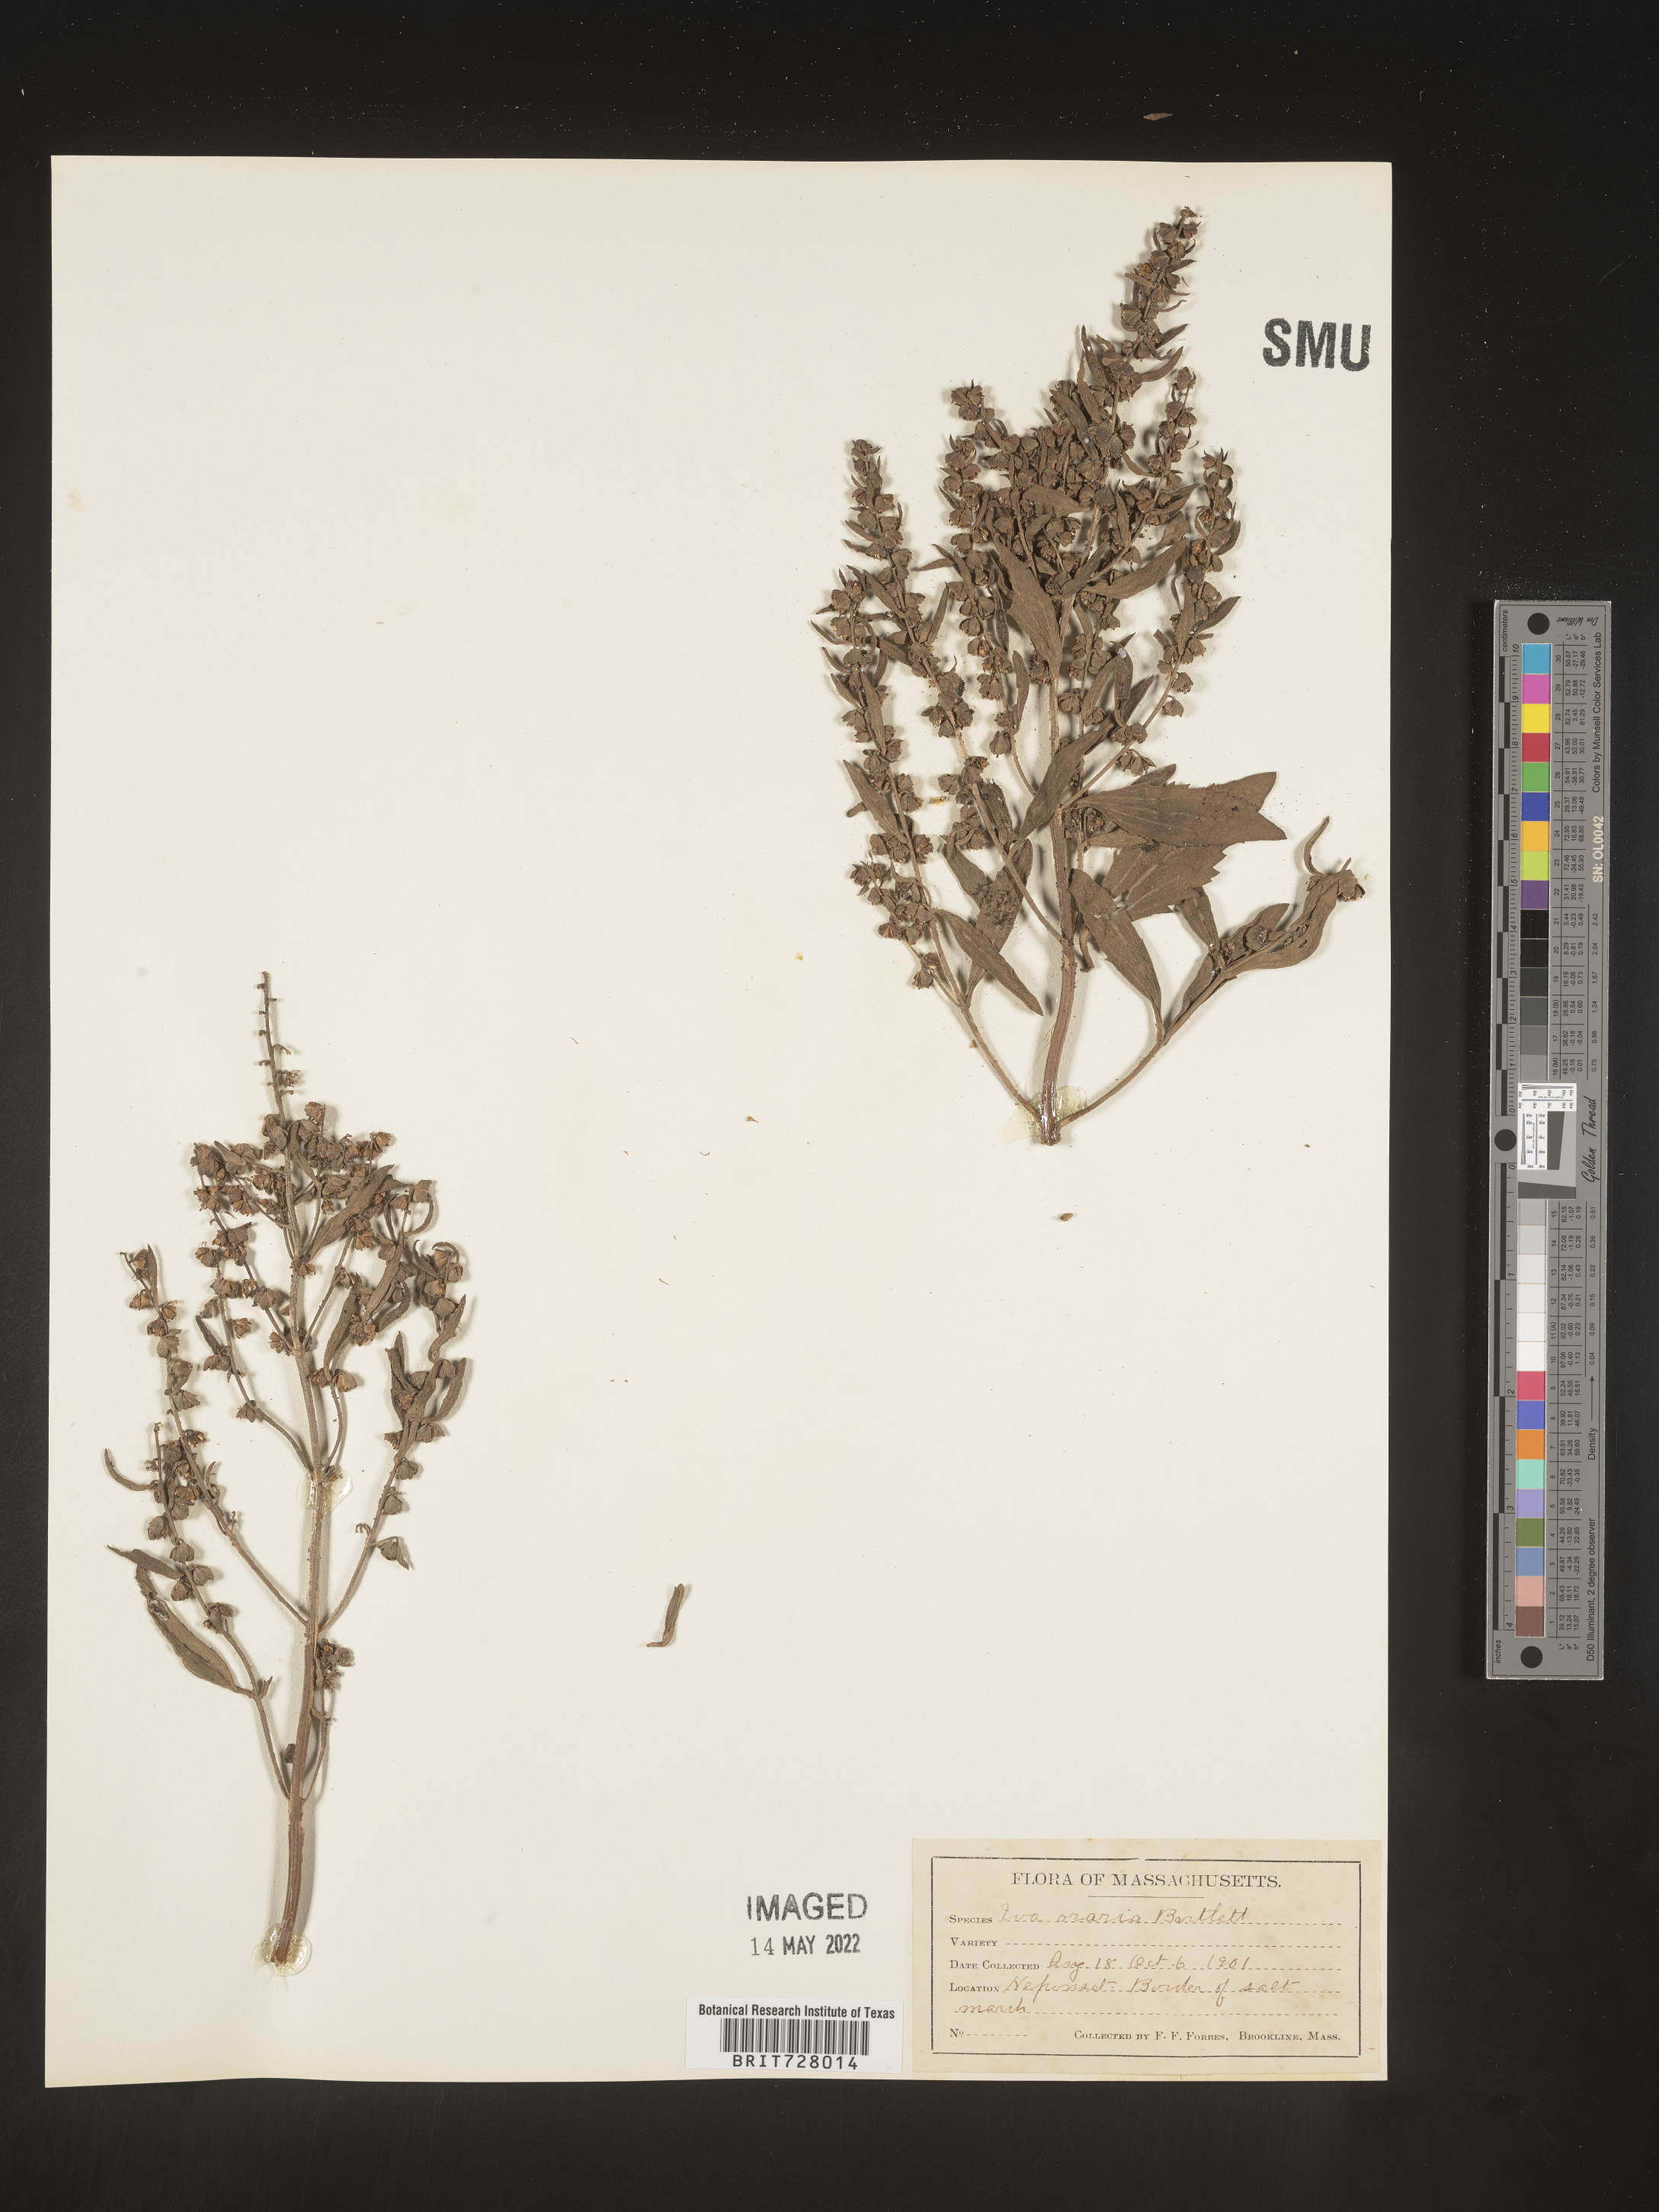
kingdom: Plantae
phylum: Tracheophyta
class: Magnoliopsida
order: Asterales
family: Asteraceae
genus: Iva
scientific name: Iva frutescens
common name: Big-leaved marsh-elder
